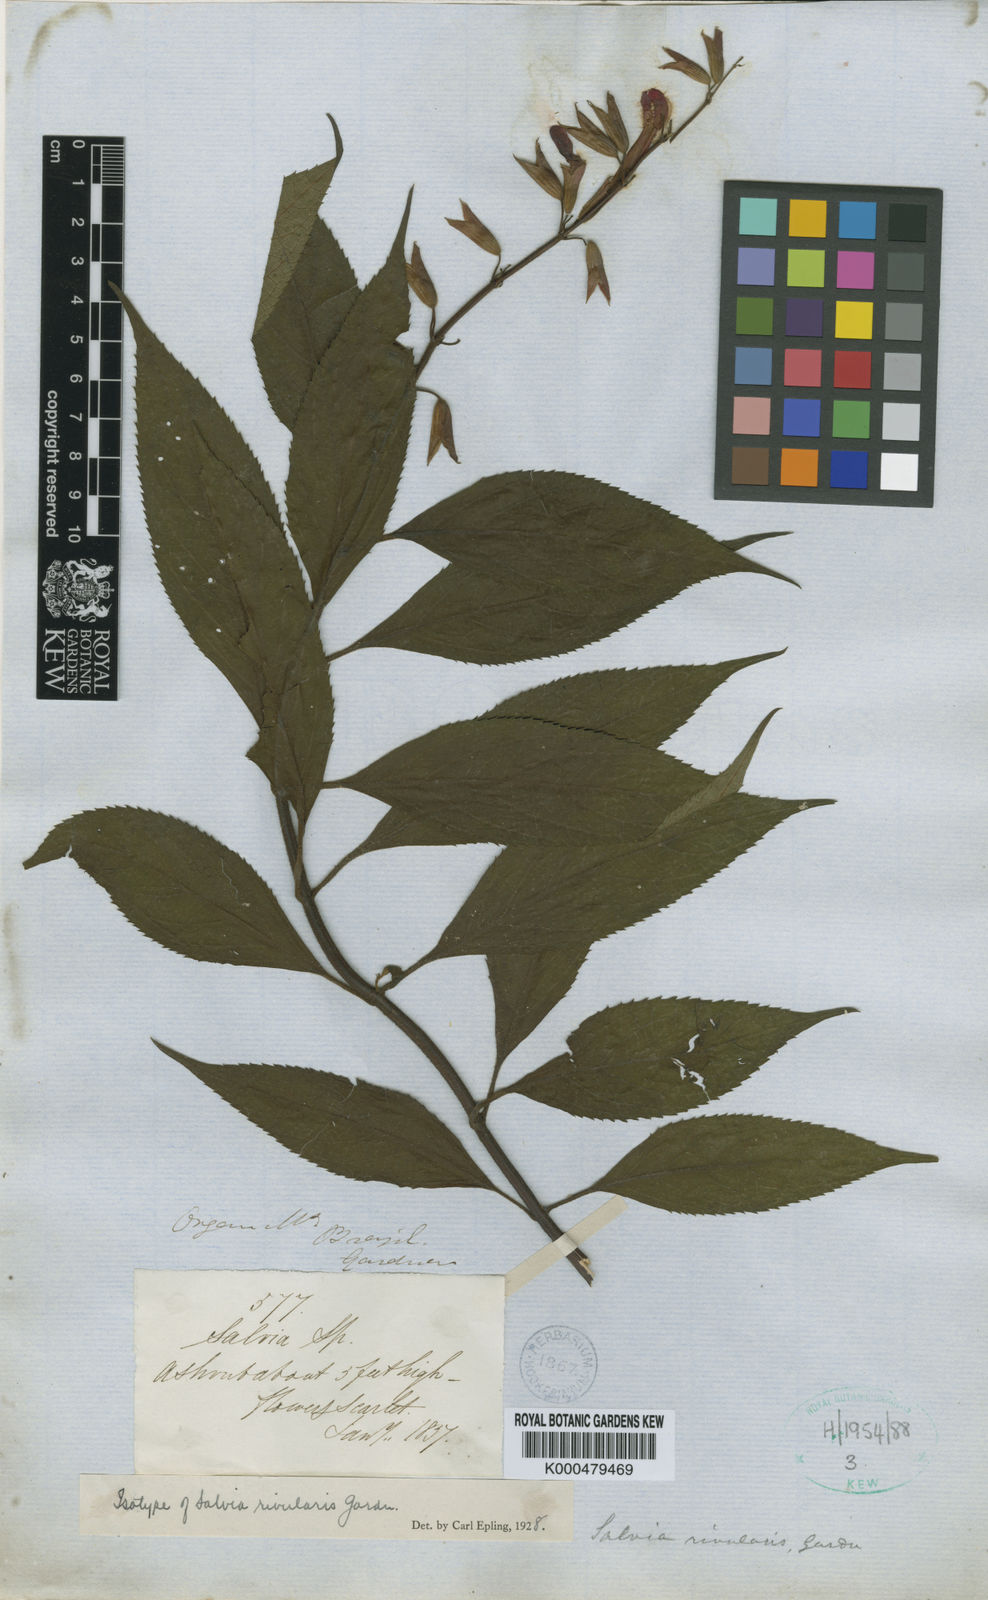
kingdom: Plantae
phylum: Tracheophyta
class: Magnoliopsida
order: Lamiales
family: Lamiaceae
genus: Salvia
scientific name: Salvia rivularis
